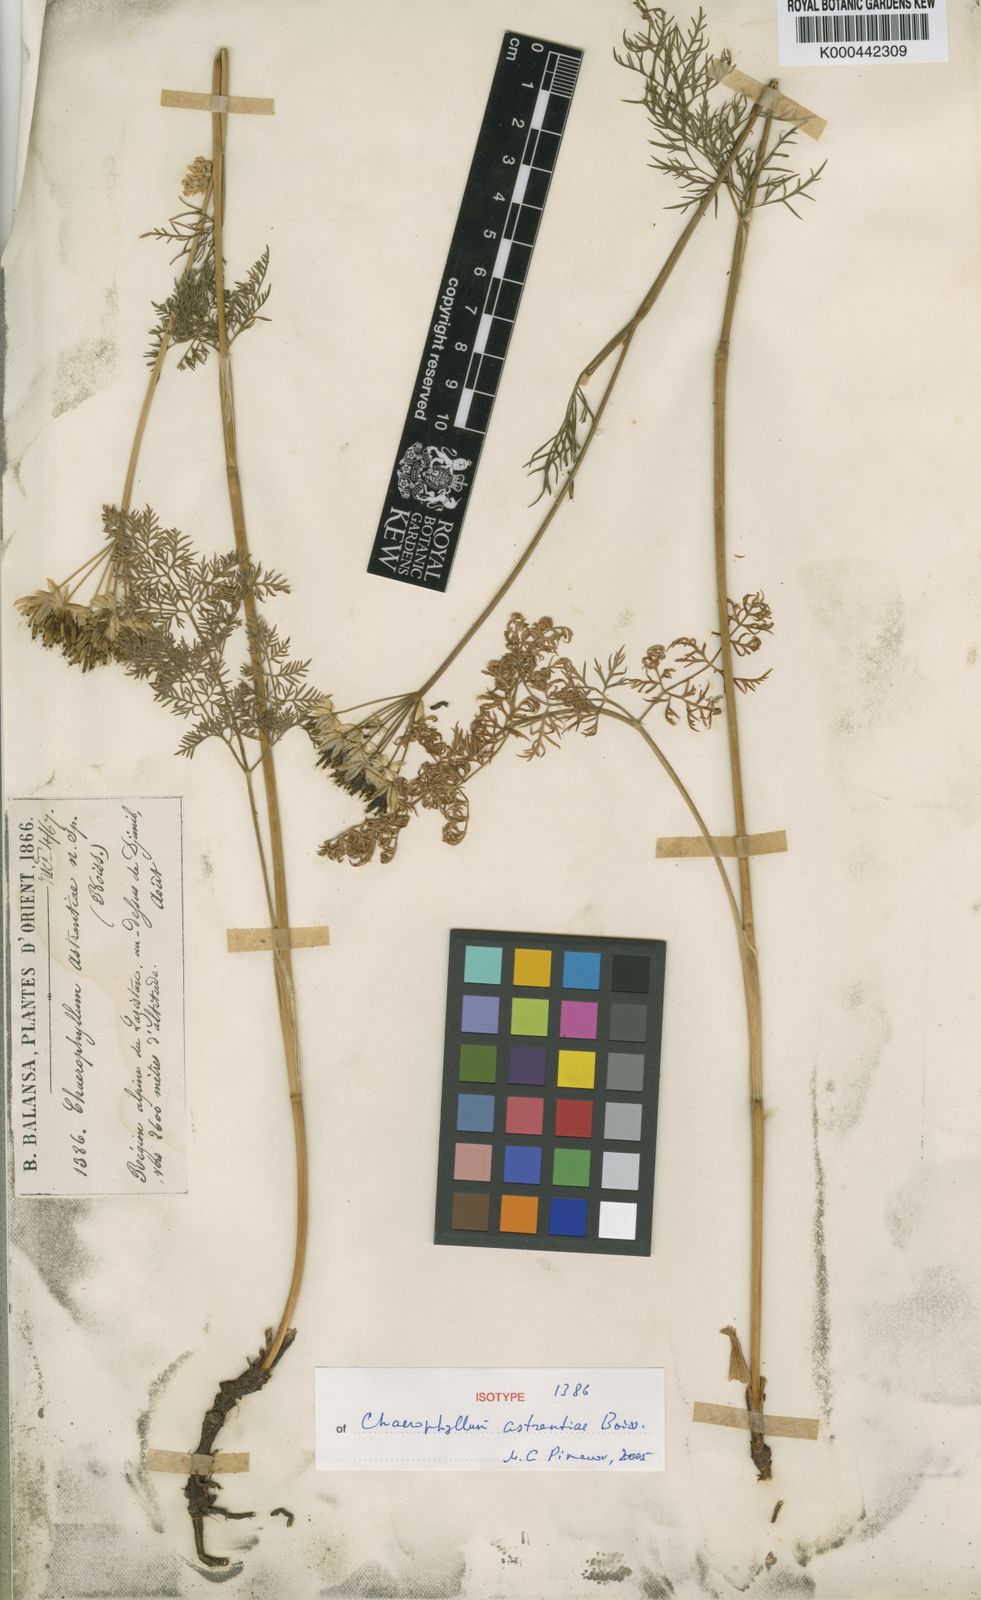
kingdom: Plantae
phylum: Tracheophyta
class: Magnoliopsida
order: Apiales
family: Apiaceae
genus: Chaerophyllum
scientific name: Chaerophyllum astrantiae
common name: Astrantia-like cow parsley
